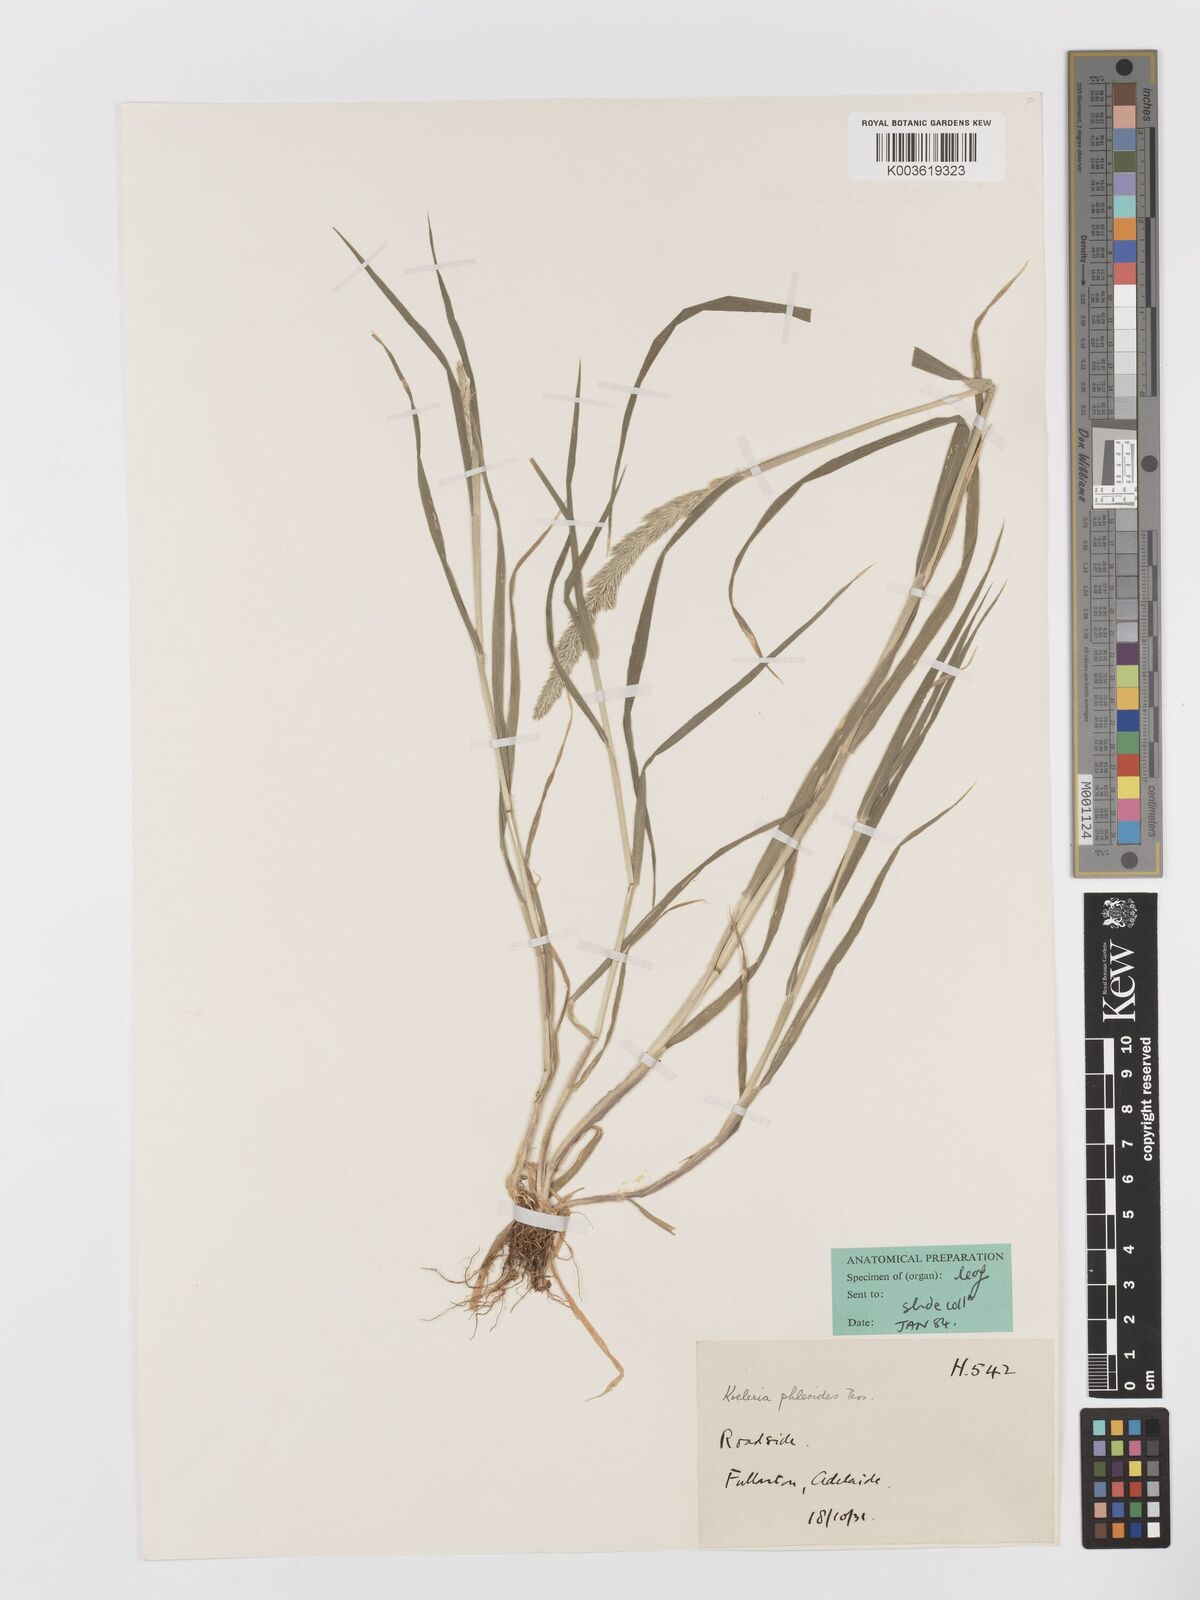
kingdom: Plantae
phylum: Tracheophyta
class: Liliopsida
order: Poales
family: Poaceae
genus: Rostraria
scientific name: Rostraria cristata
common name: Mediterranean hair-grass
